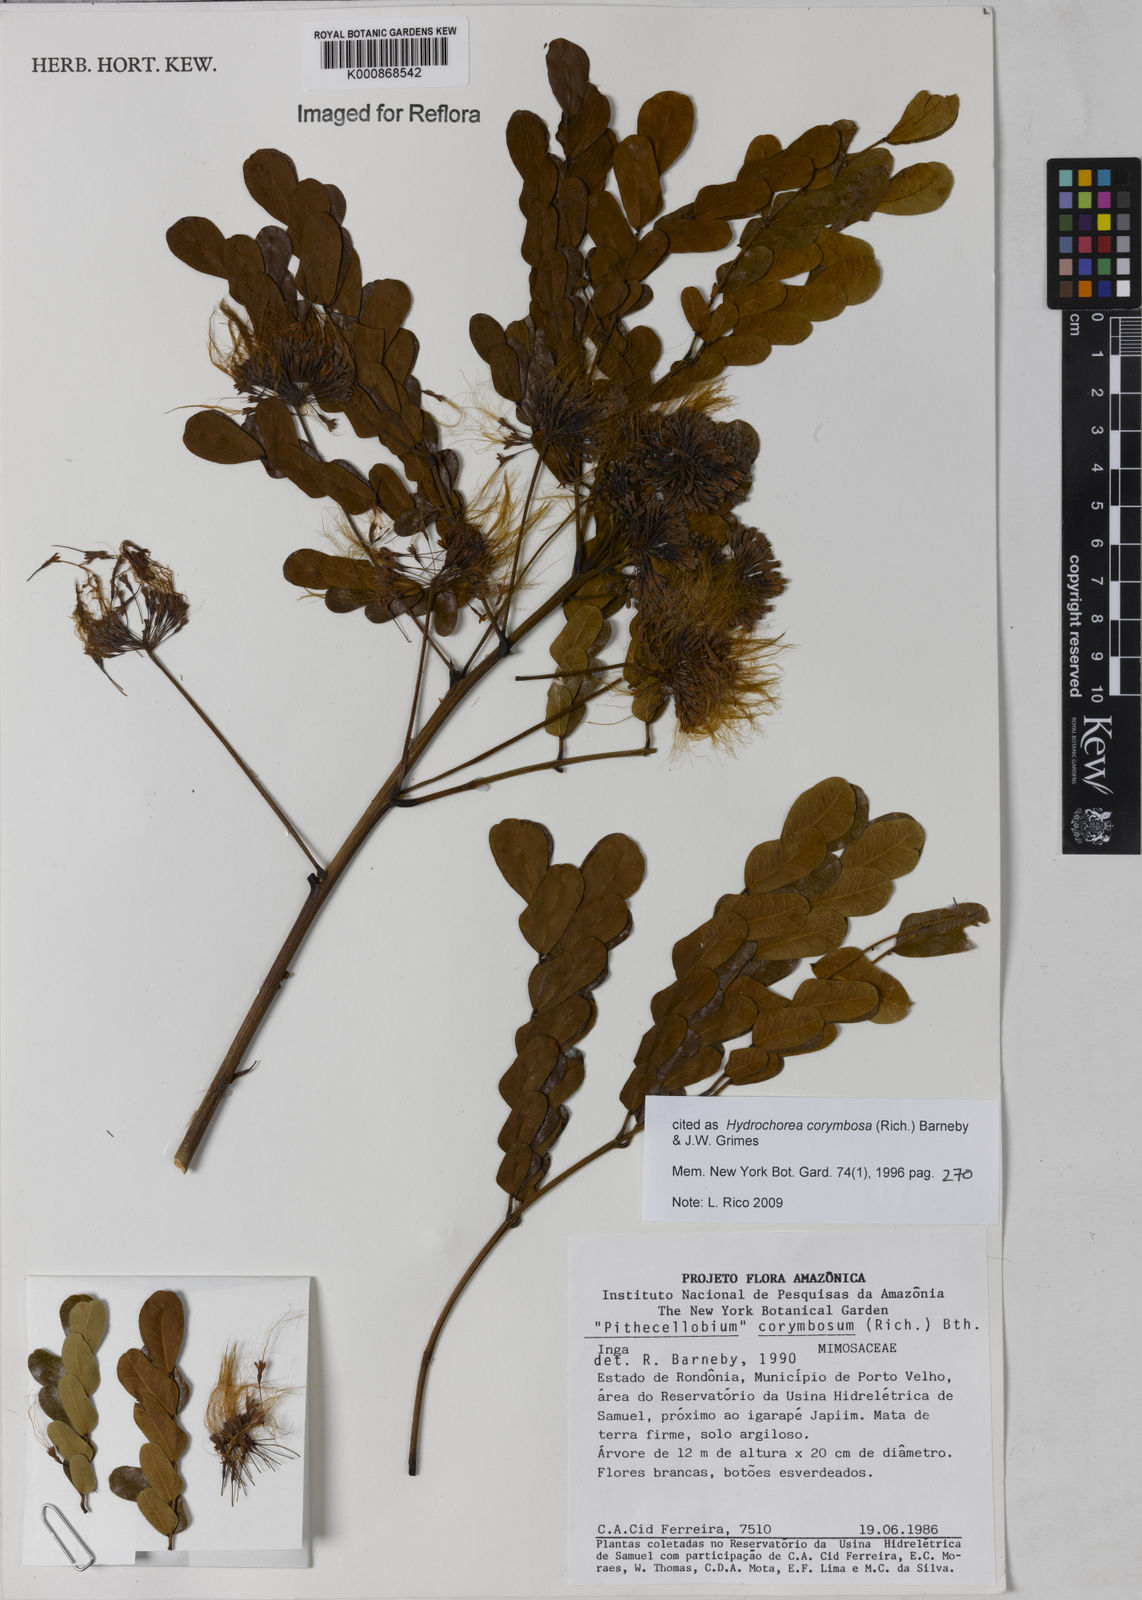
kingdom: Plantae
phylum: Tracheophyta
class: Magnoliopsida
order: Fabales
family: Fabaceae
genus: Hydrochorea
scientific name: Hydrochorea corymbosa
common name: Swamp manariballi
